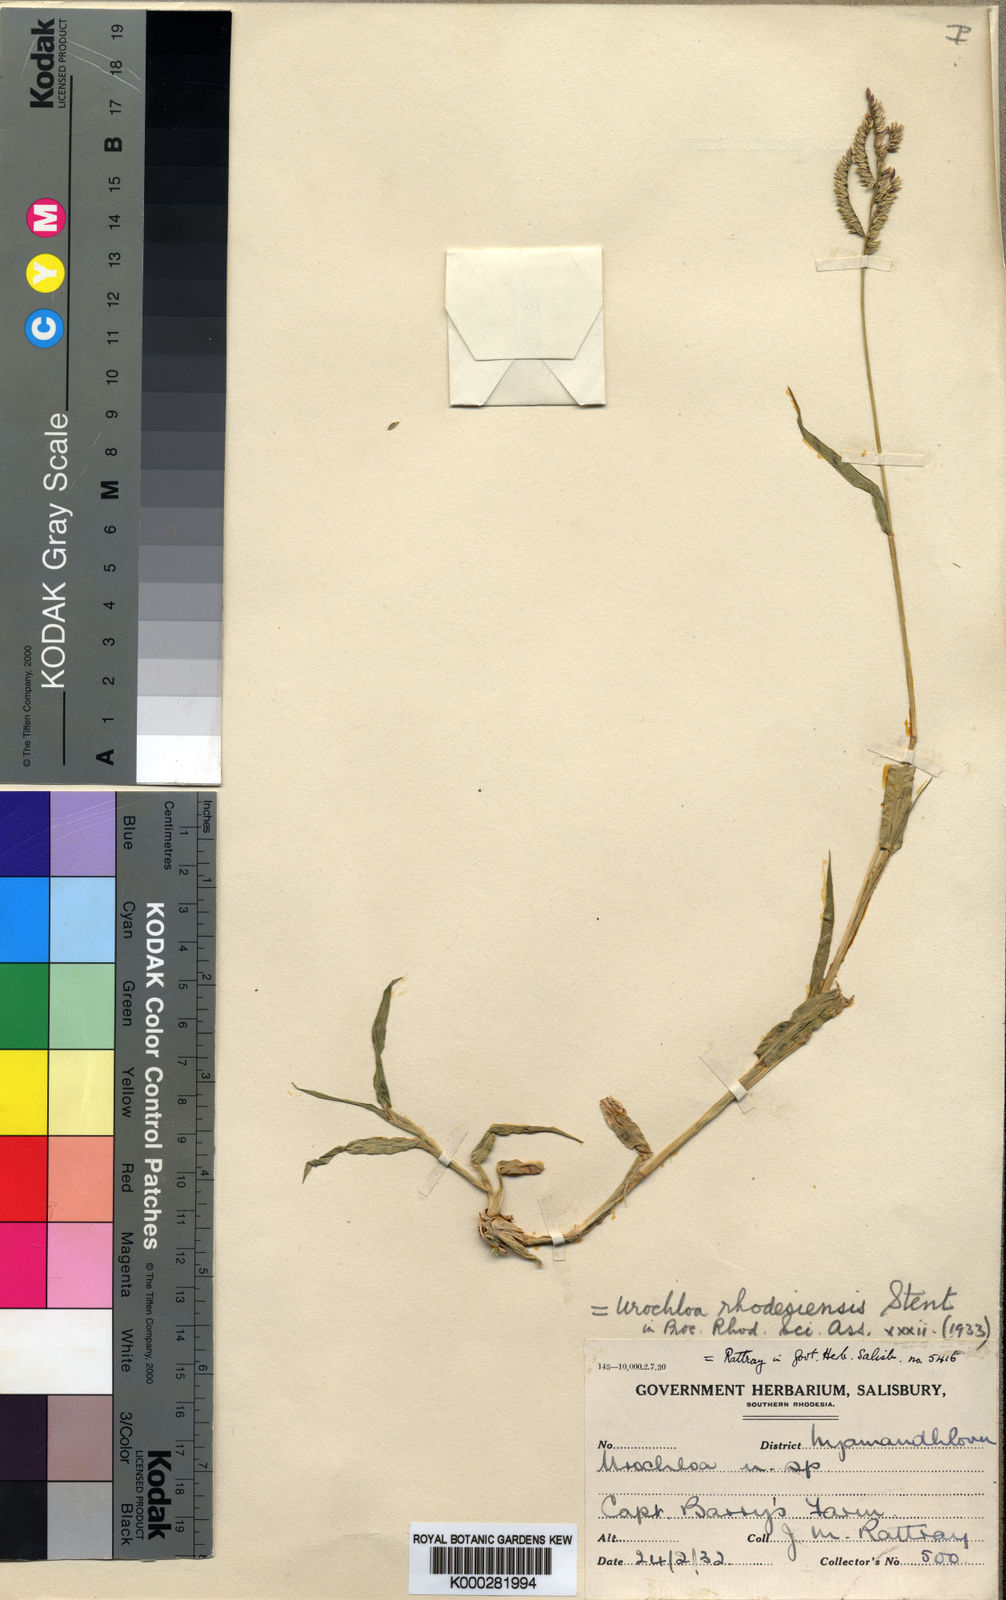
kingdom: Plantae
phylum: Tracheophyta
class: Liliopsida
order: Poales
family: Poaceae
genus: Urochloa
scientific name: Urochloa trichopus
